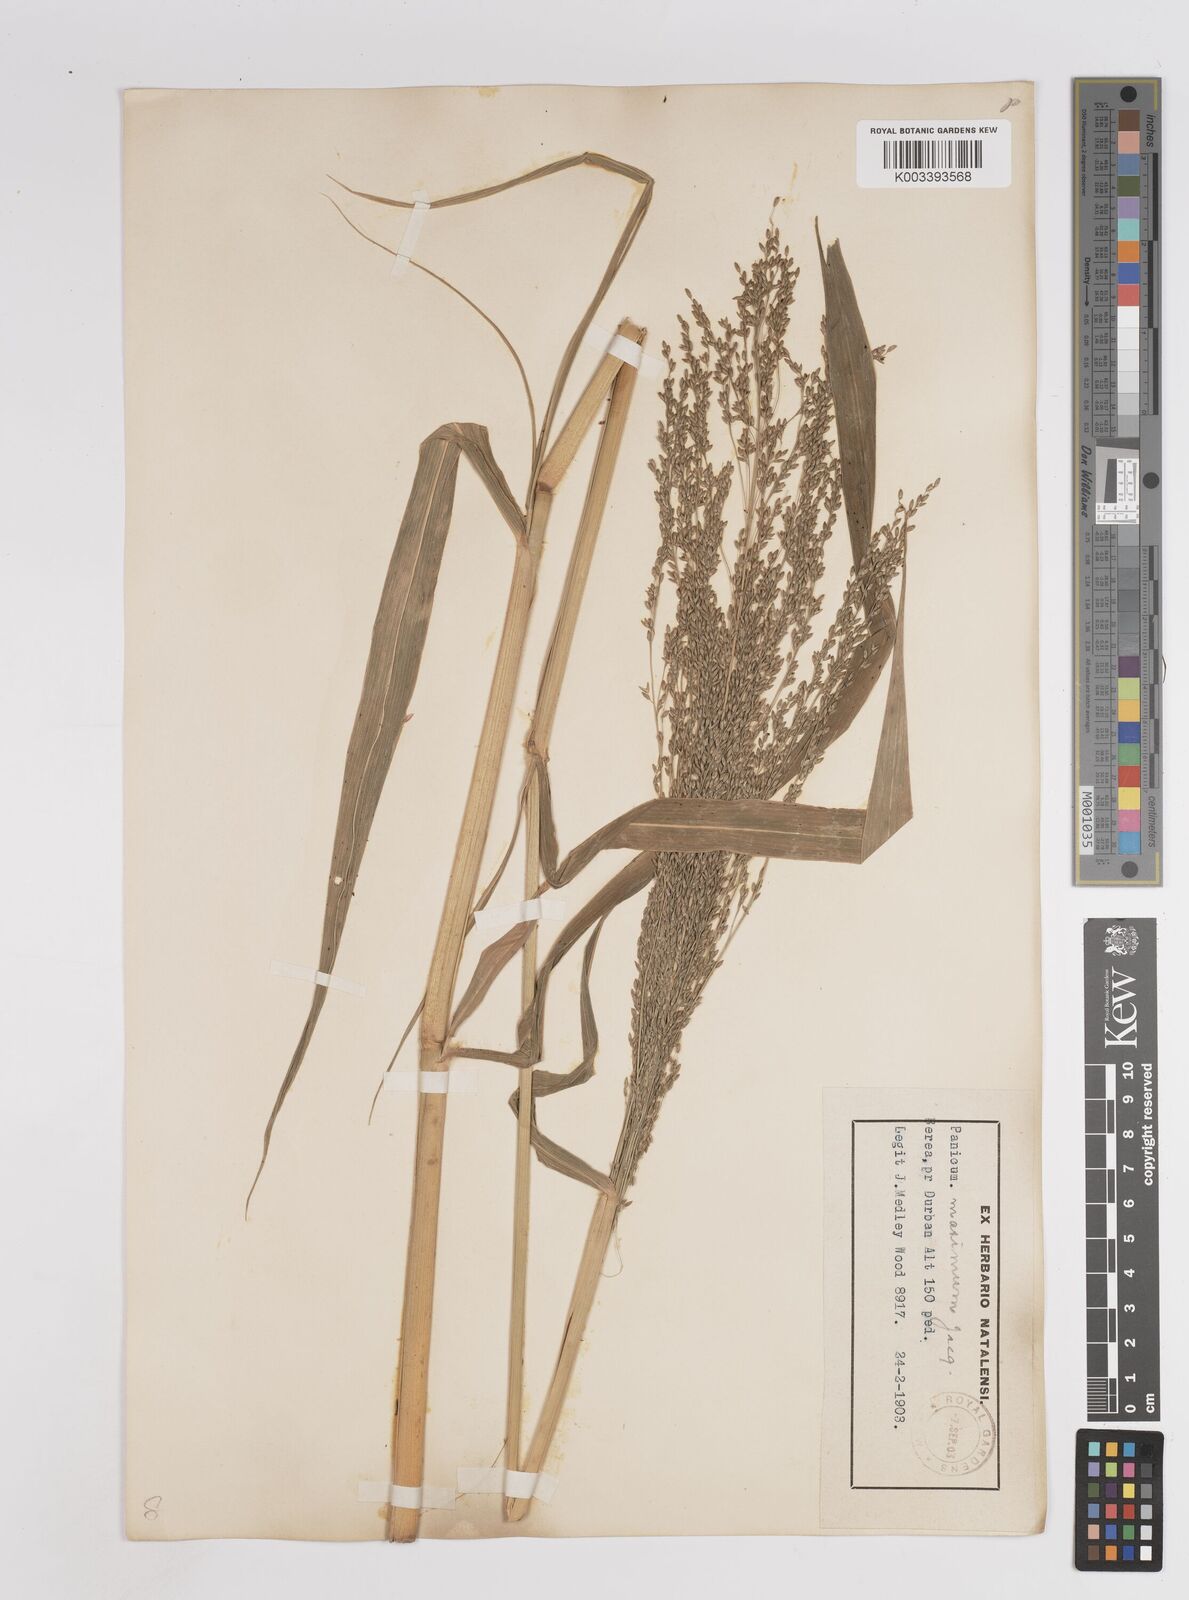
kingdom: Plantae
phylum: Tracheophyta
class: Liliopsida
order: Poales
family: Poaceae
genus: Megathyrsus
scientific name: Megathyrsus maximus
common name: Guineagrass
